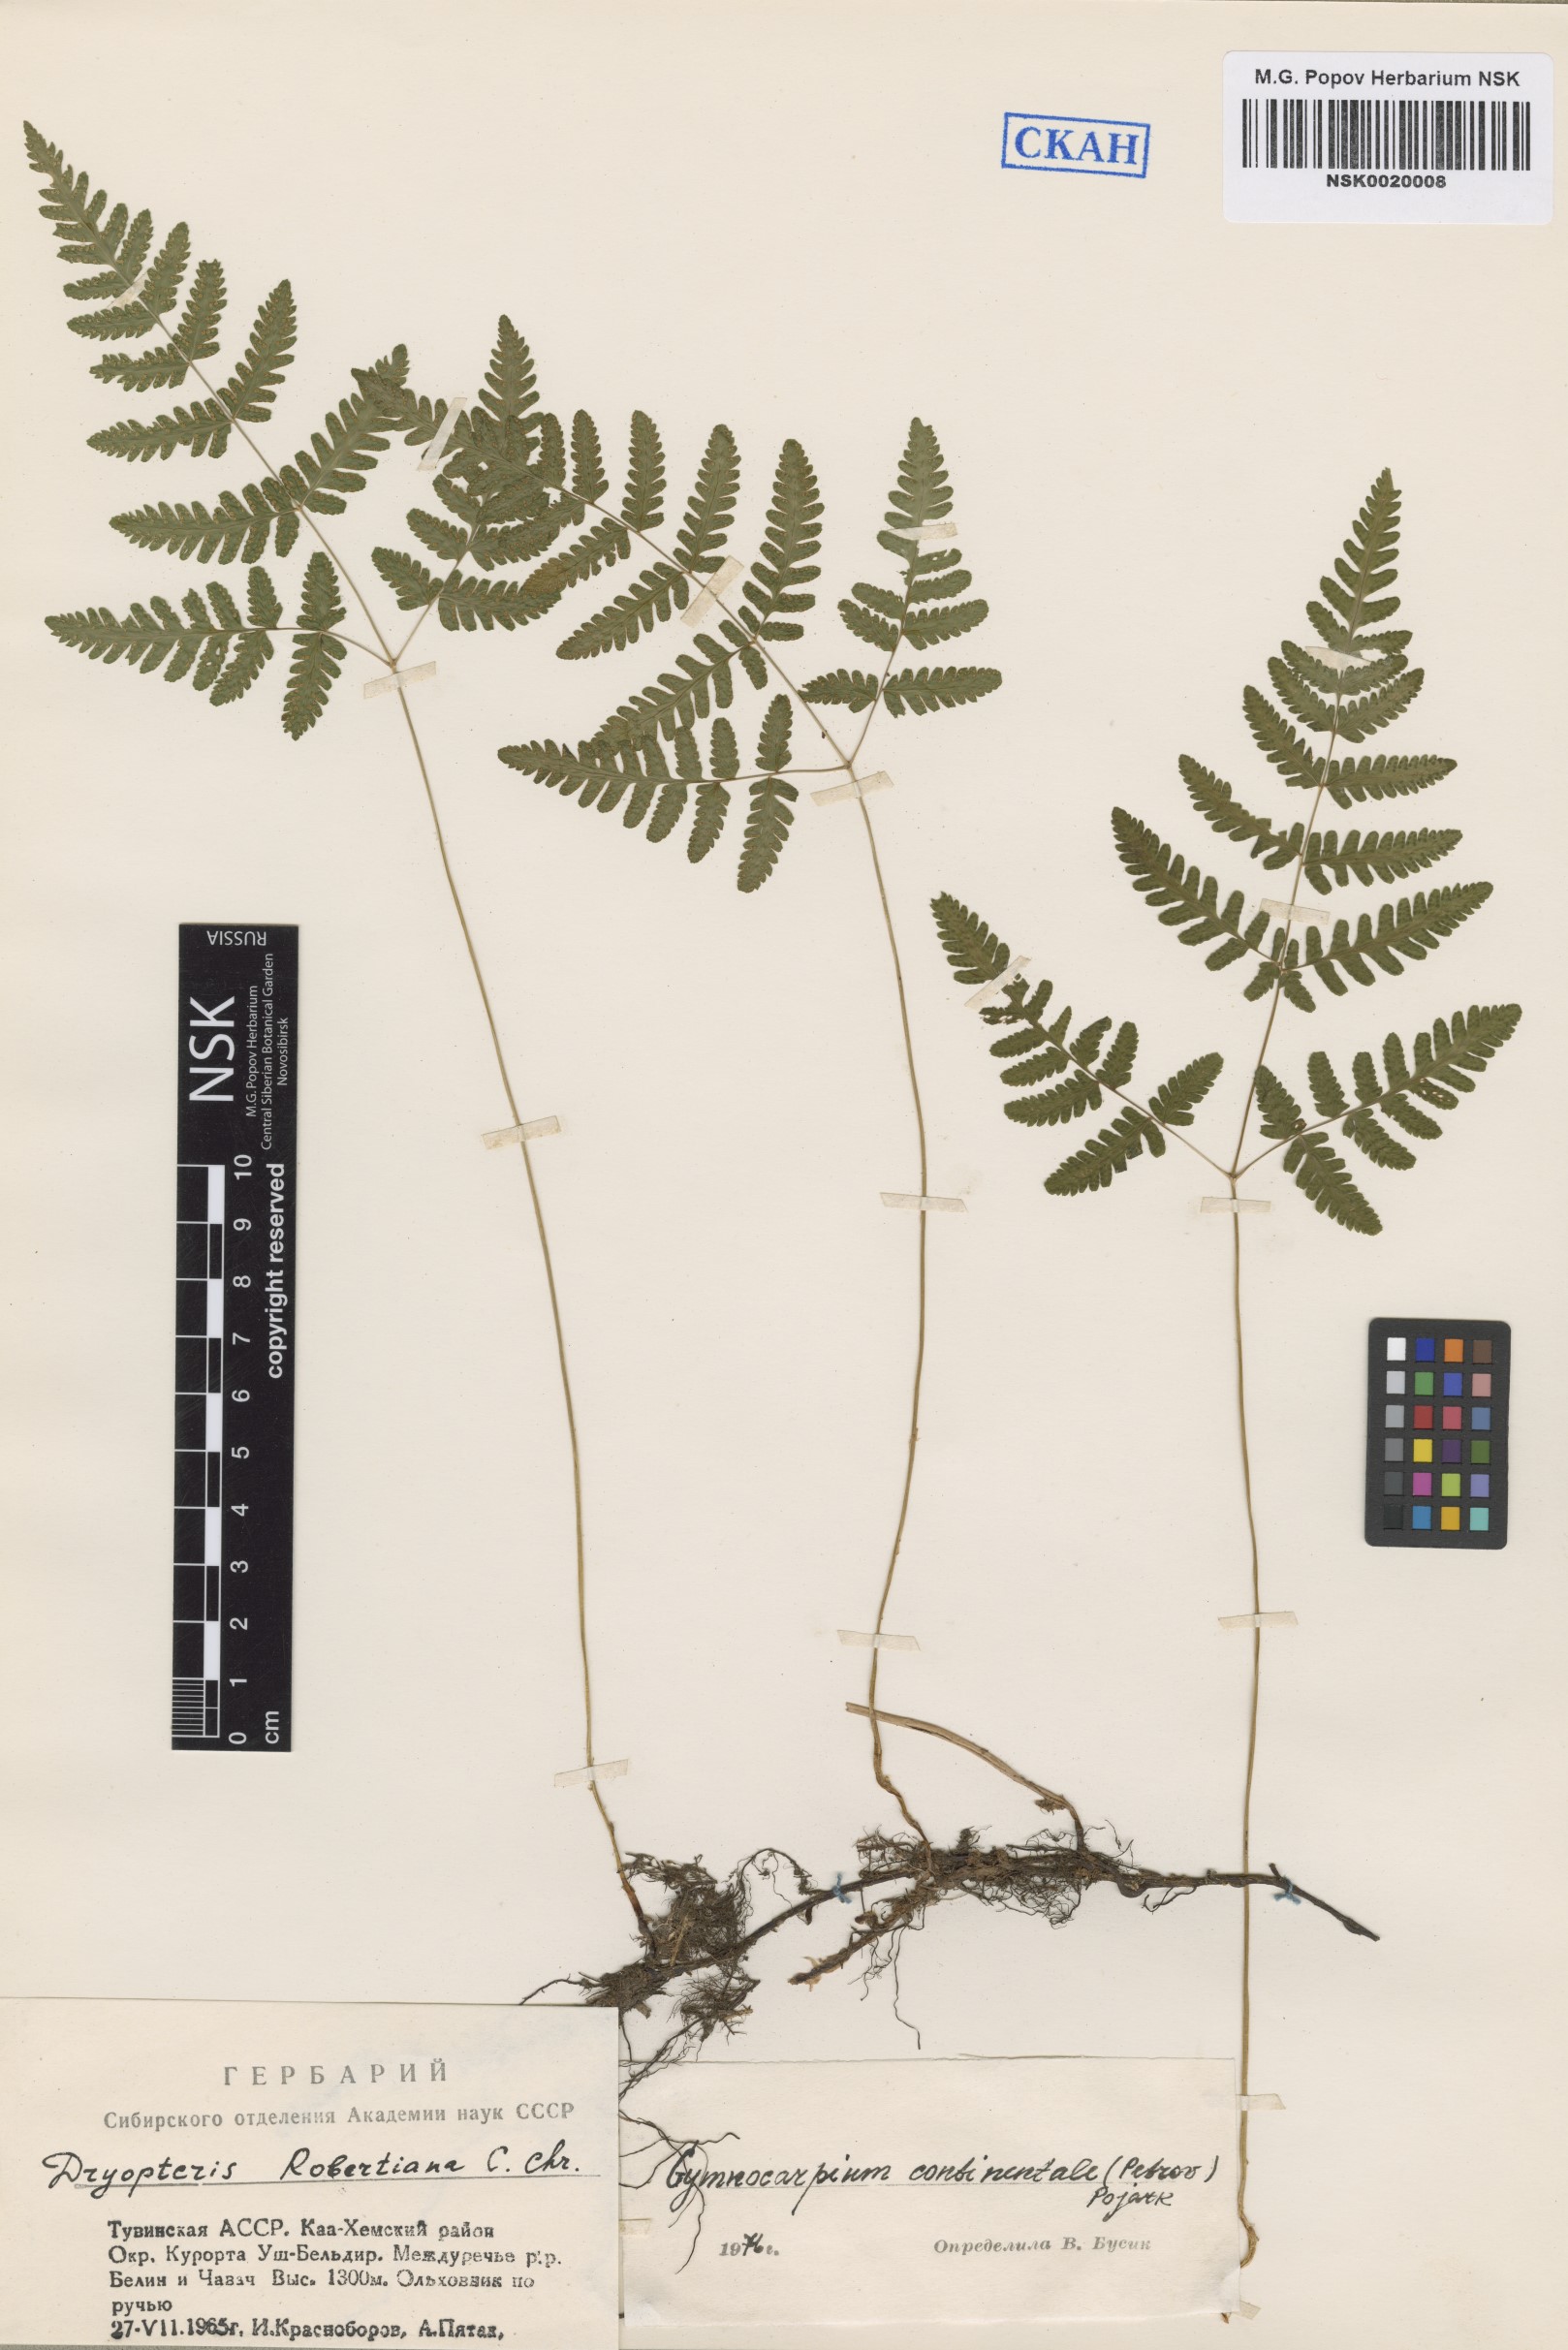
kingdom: Plantae
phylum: Tracheophyta
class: Polypodiopsida
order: Polypodiales
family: Cystopteridaceae
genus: Gymnocarpium
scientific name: Gymnocarpium continentale
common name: Asian oak fern
